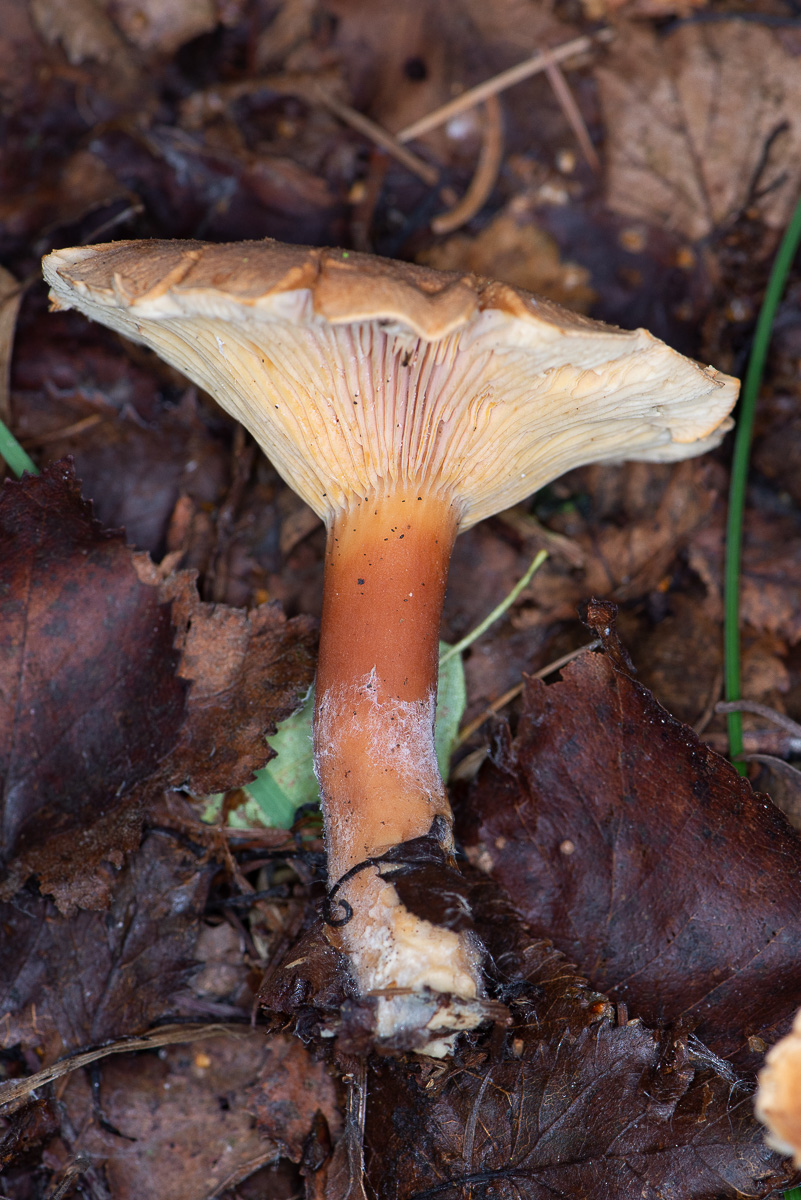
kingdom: Fungi
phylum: Basidiomycota
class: Agaricomycetes
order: Russulales
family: Russulaceae
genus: Lactarius
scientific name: Lactarius helvus
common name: mose-mælkehat
